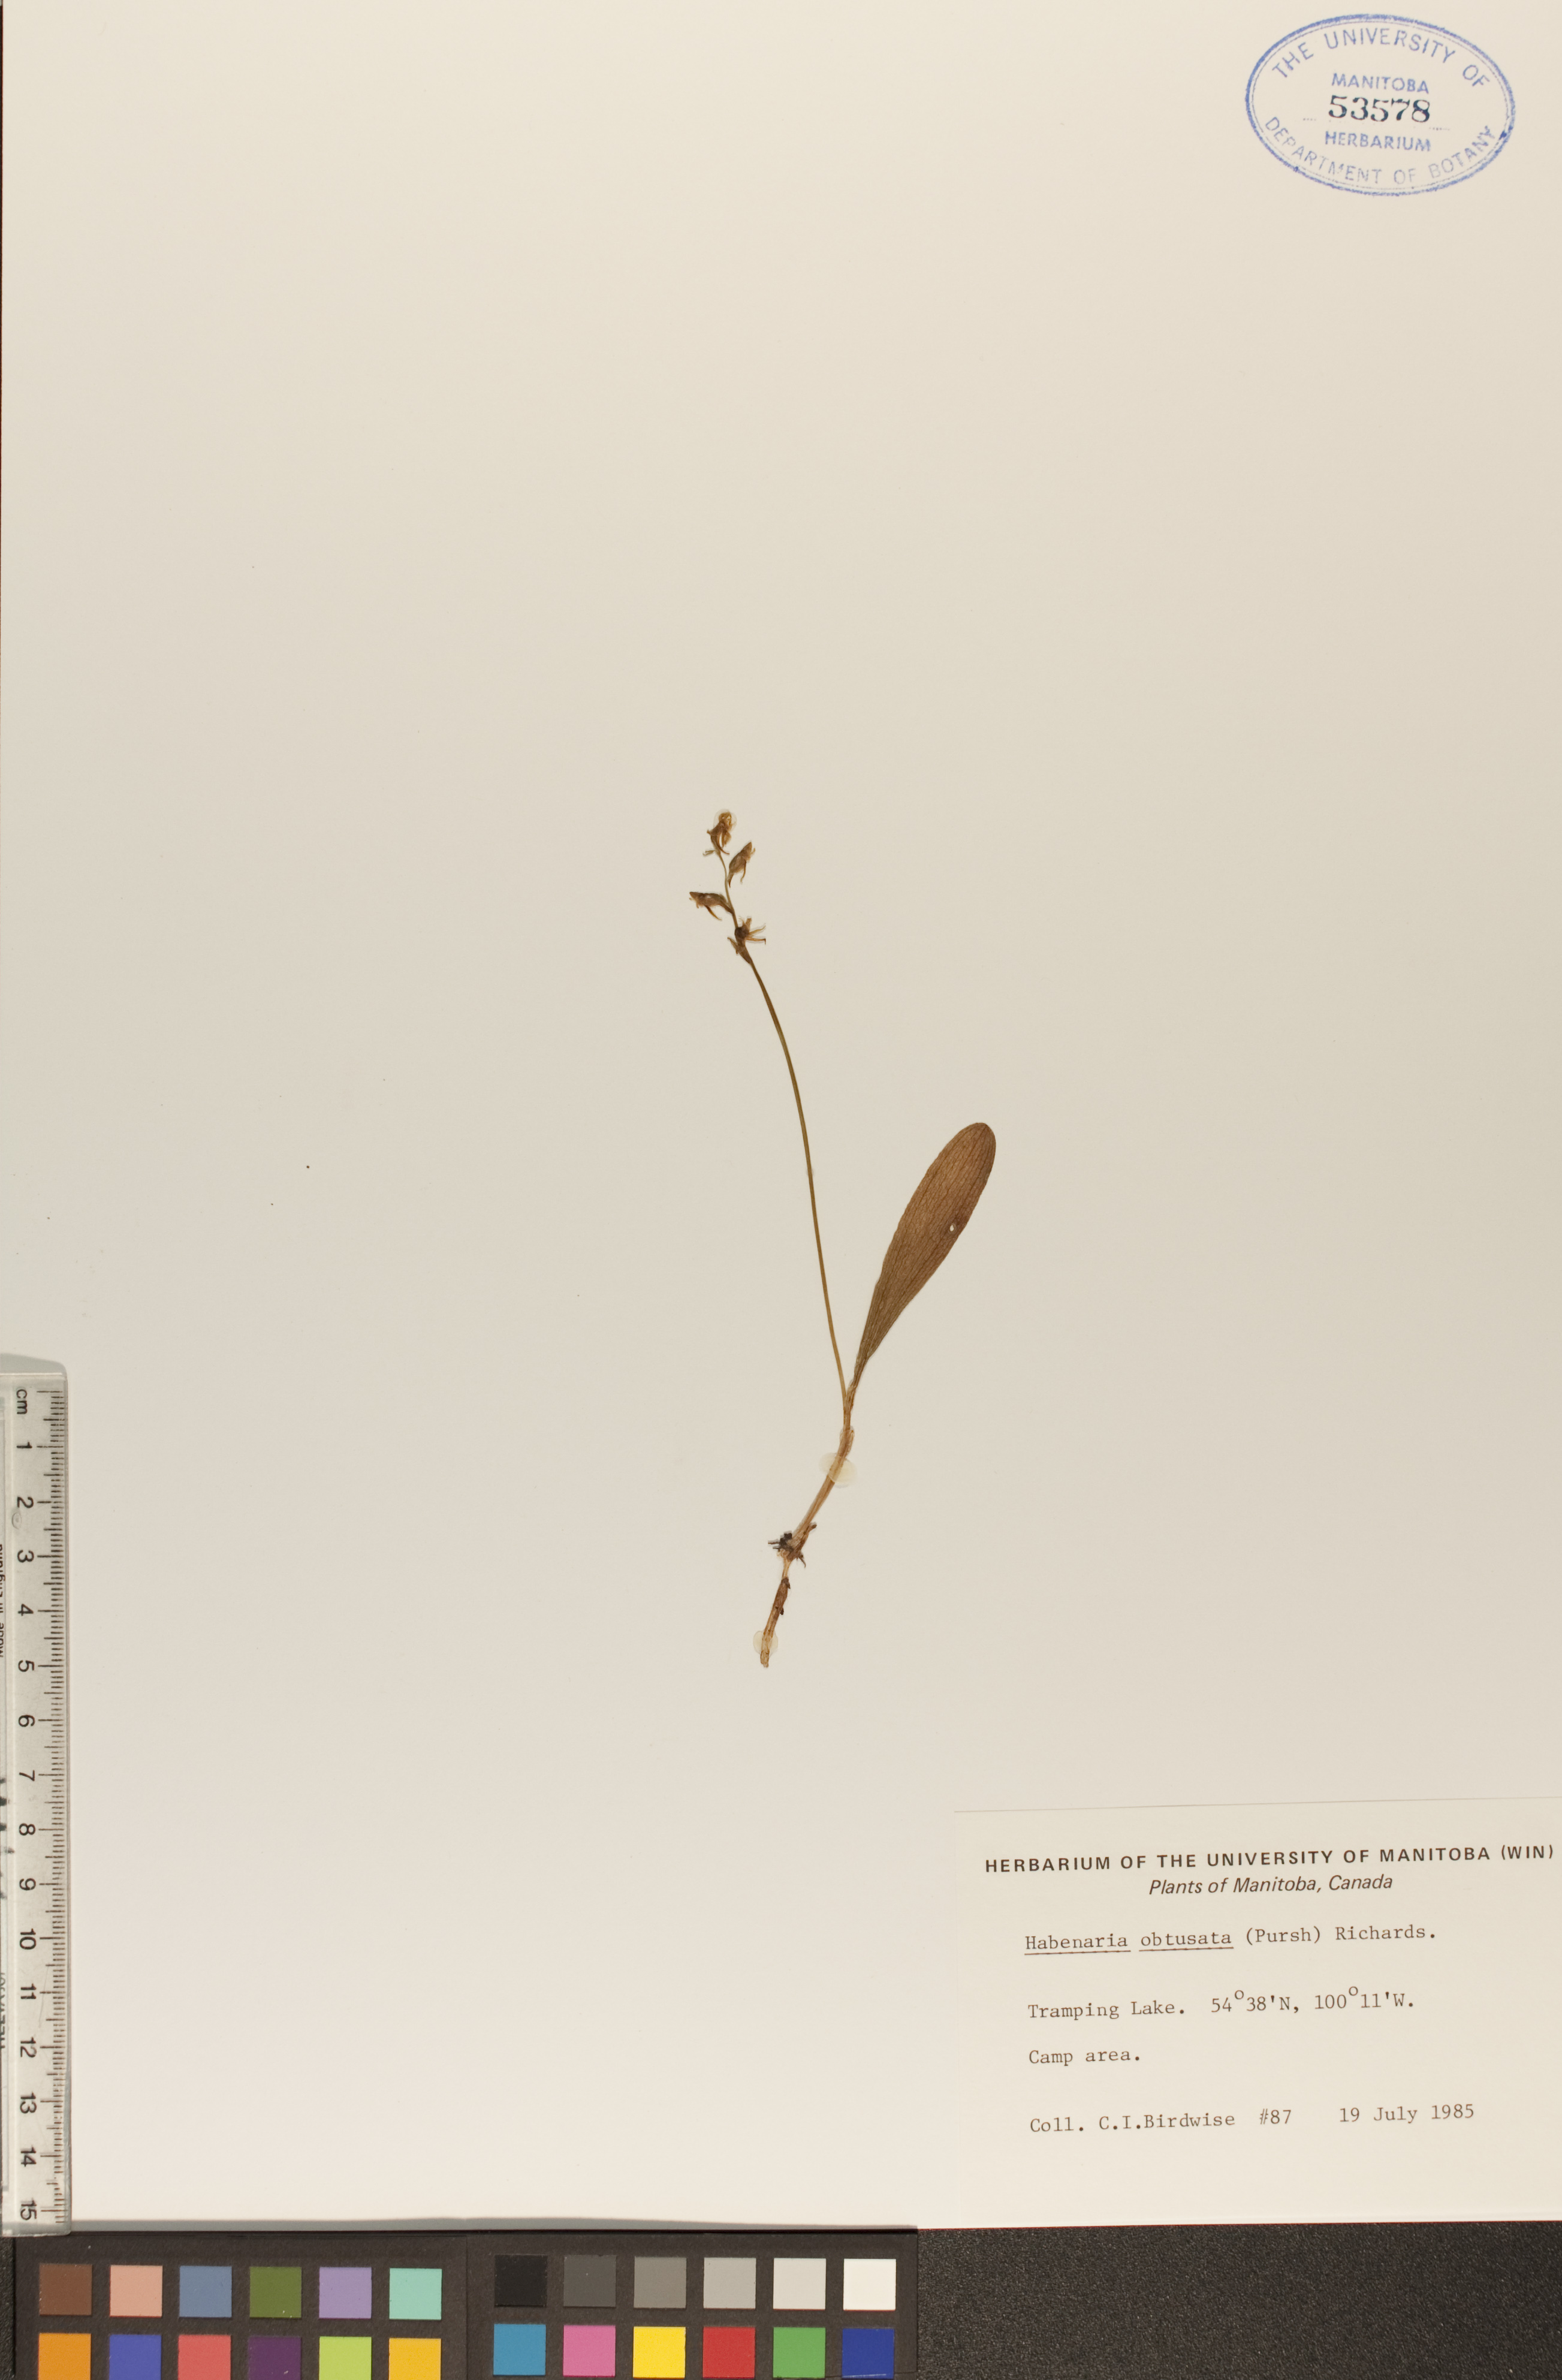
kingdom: Plantae
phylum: Tracheophyta
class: Liliopsida
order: Asparagales
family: Orchidaceae
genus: Platanthera
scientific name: Platanthera obtusata
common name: Blunt bog orchid
